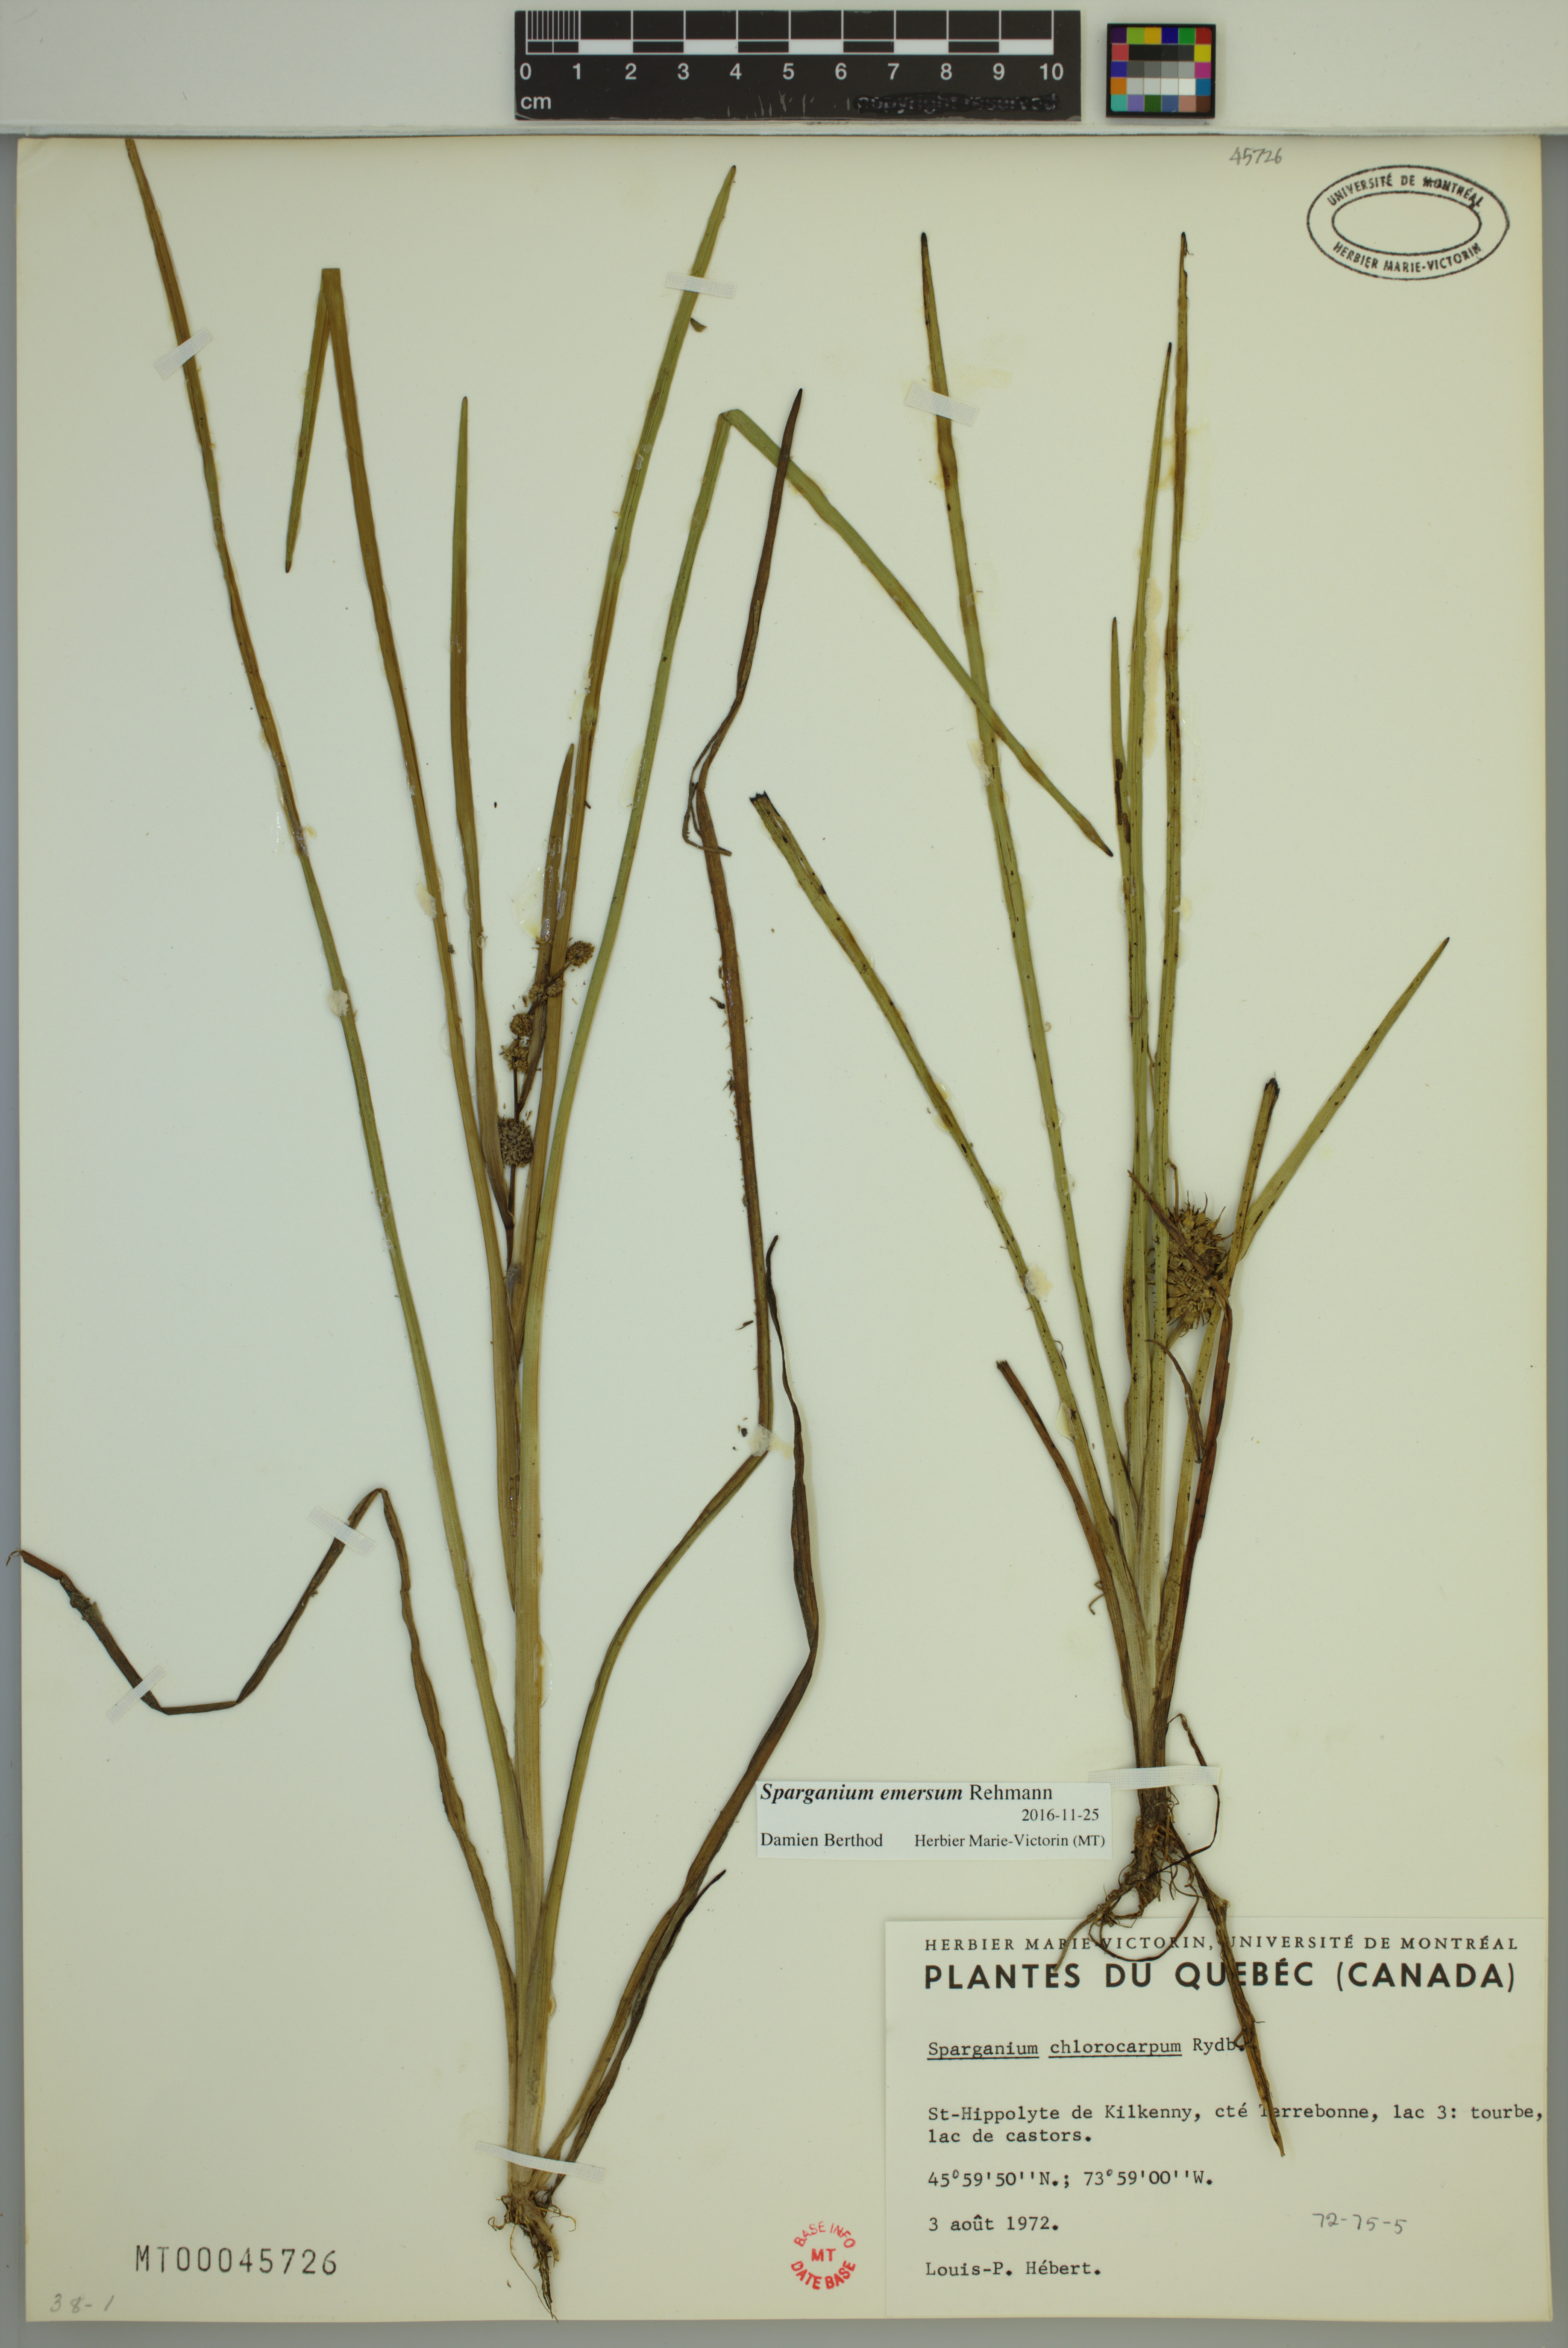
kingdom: Plantae
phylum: Tracheophyta
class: Liliopsida
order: Poales
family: Typhaceae
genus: Sparganium
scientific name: Sparganium emersum
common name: Unbranched bur-reed
